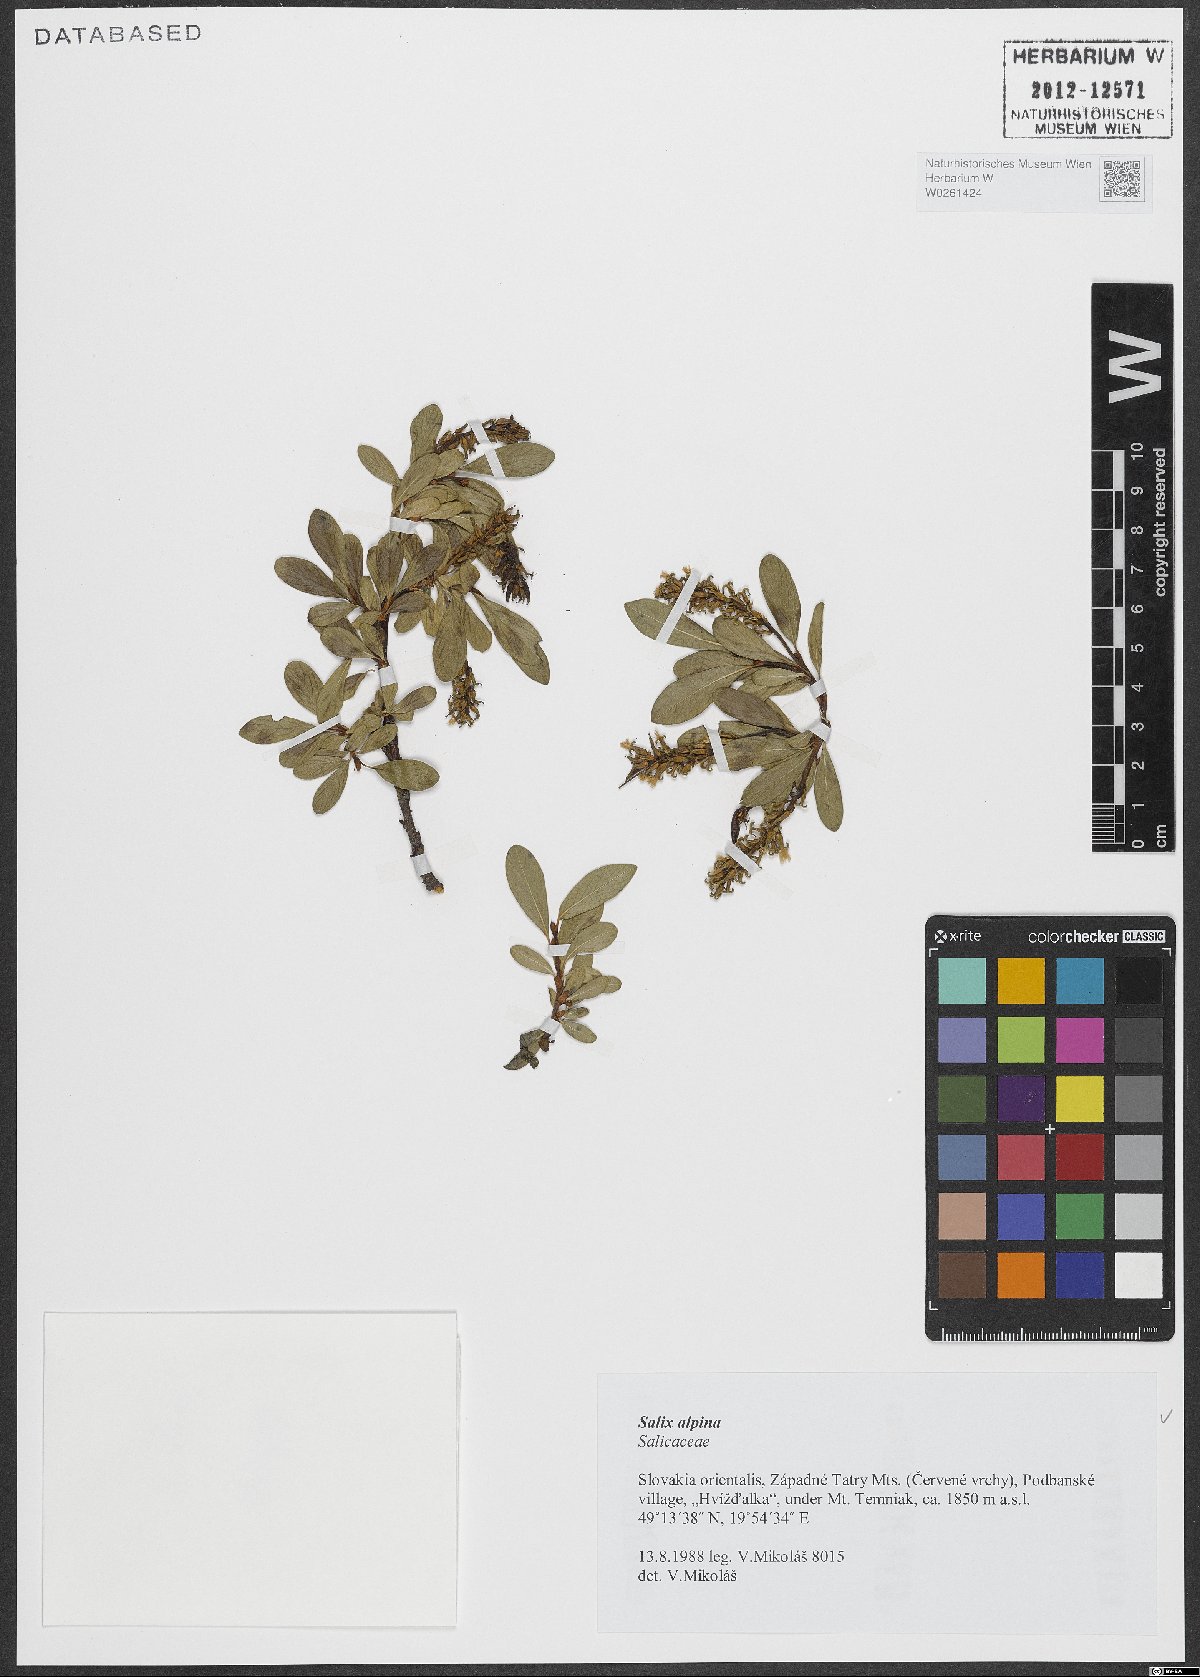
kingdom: Plantae
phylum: Tracheophyta
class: Magnoliopsida
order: Malpighiales
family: Salicaceae
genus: Salix
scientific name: Salix alpina
